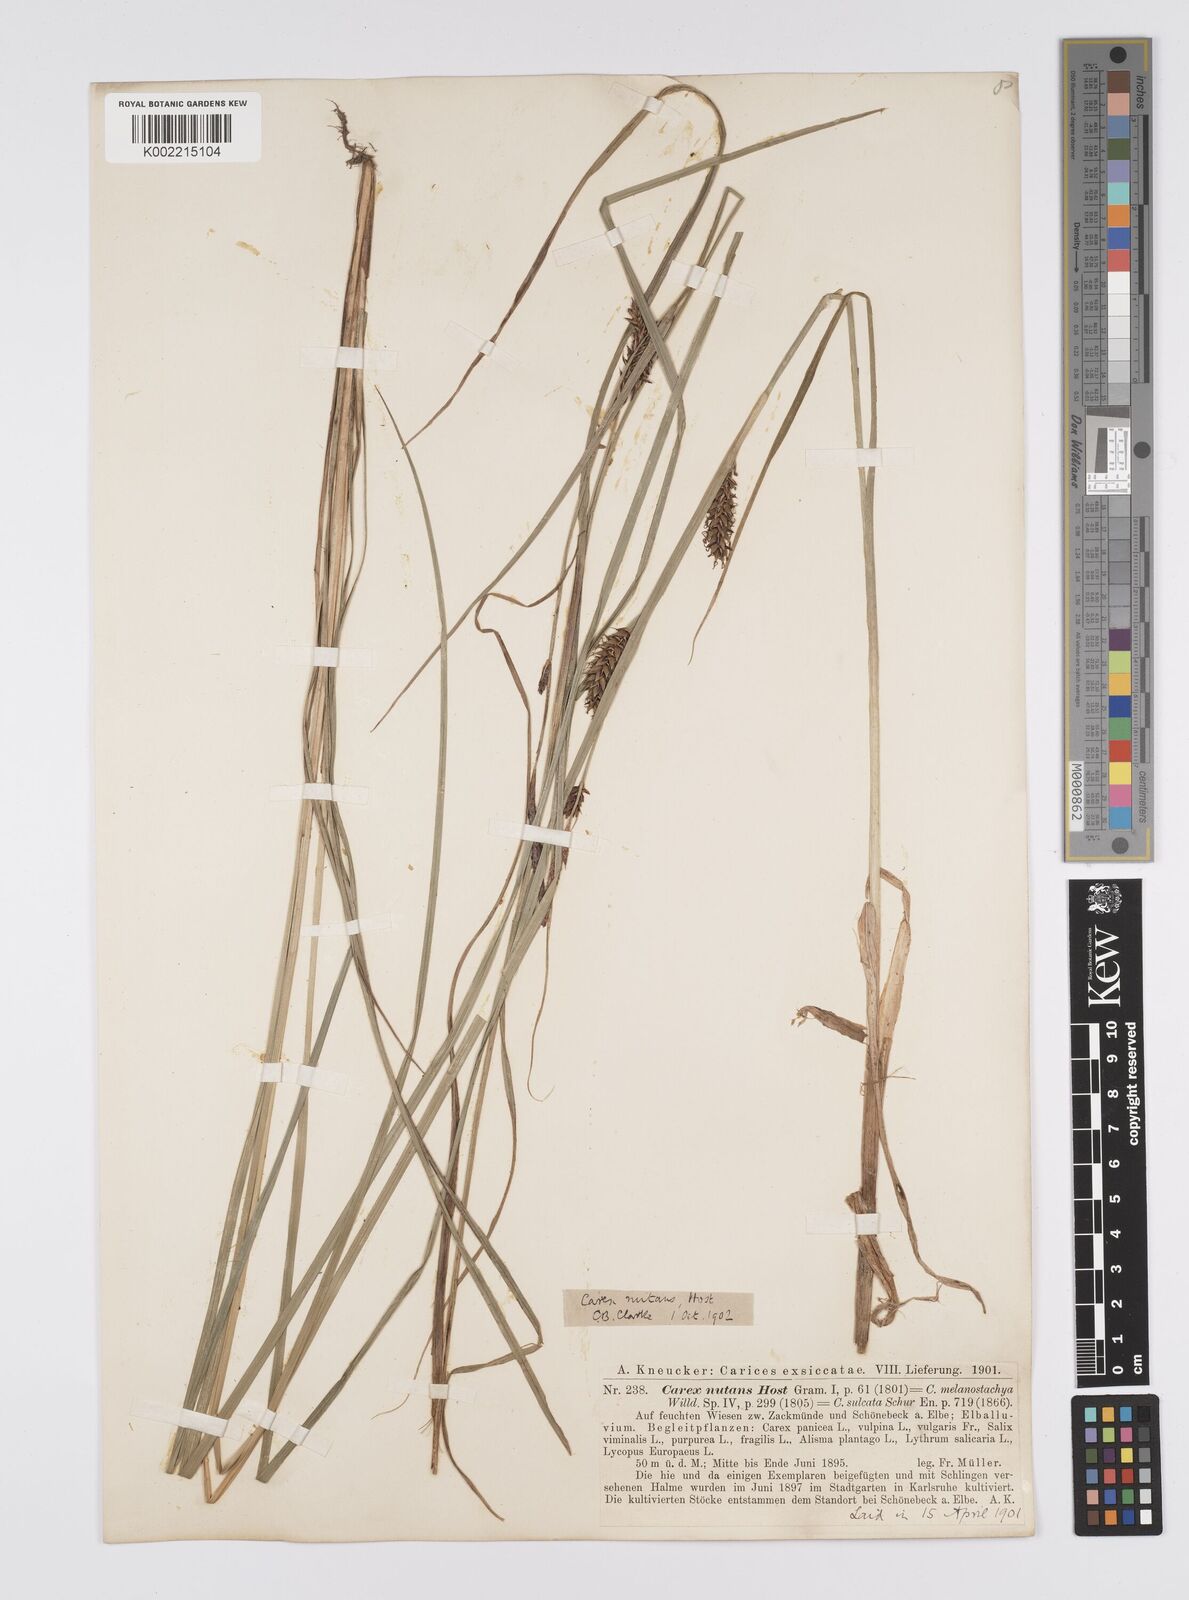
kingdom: Plantae
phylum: Tracheophyta
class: Liliopsida
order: Poales
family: Cyperaceae
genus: Carex
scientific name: Carex melanostachya
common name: Black-spiked sedge
